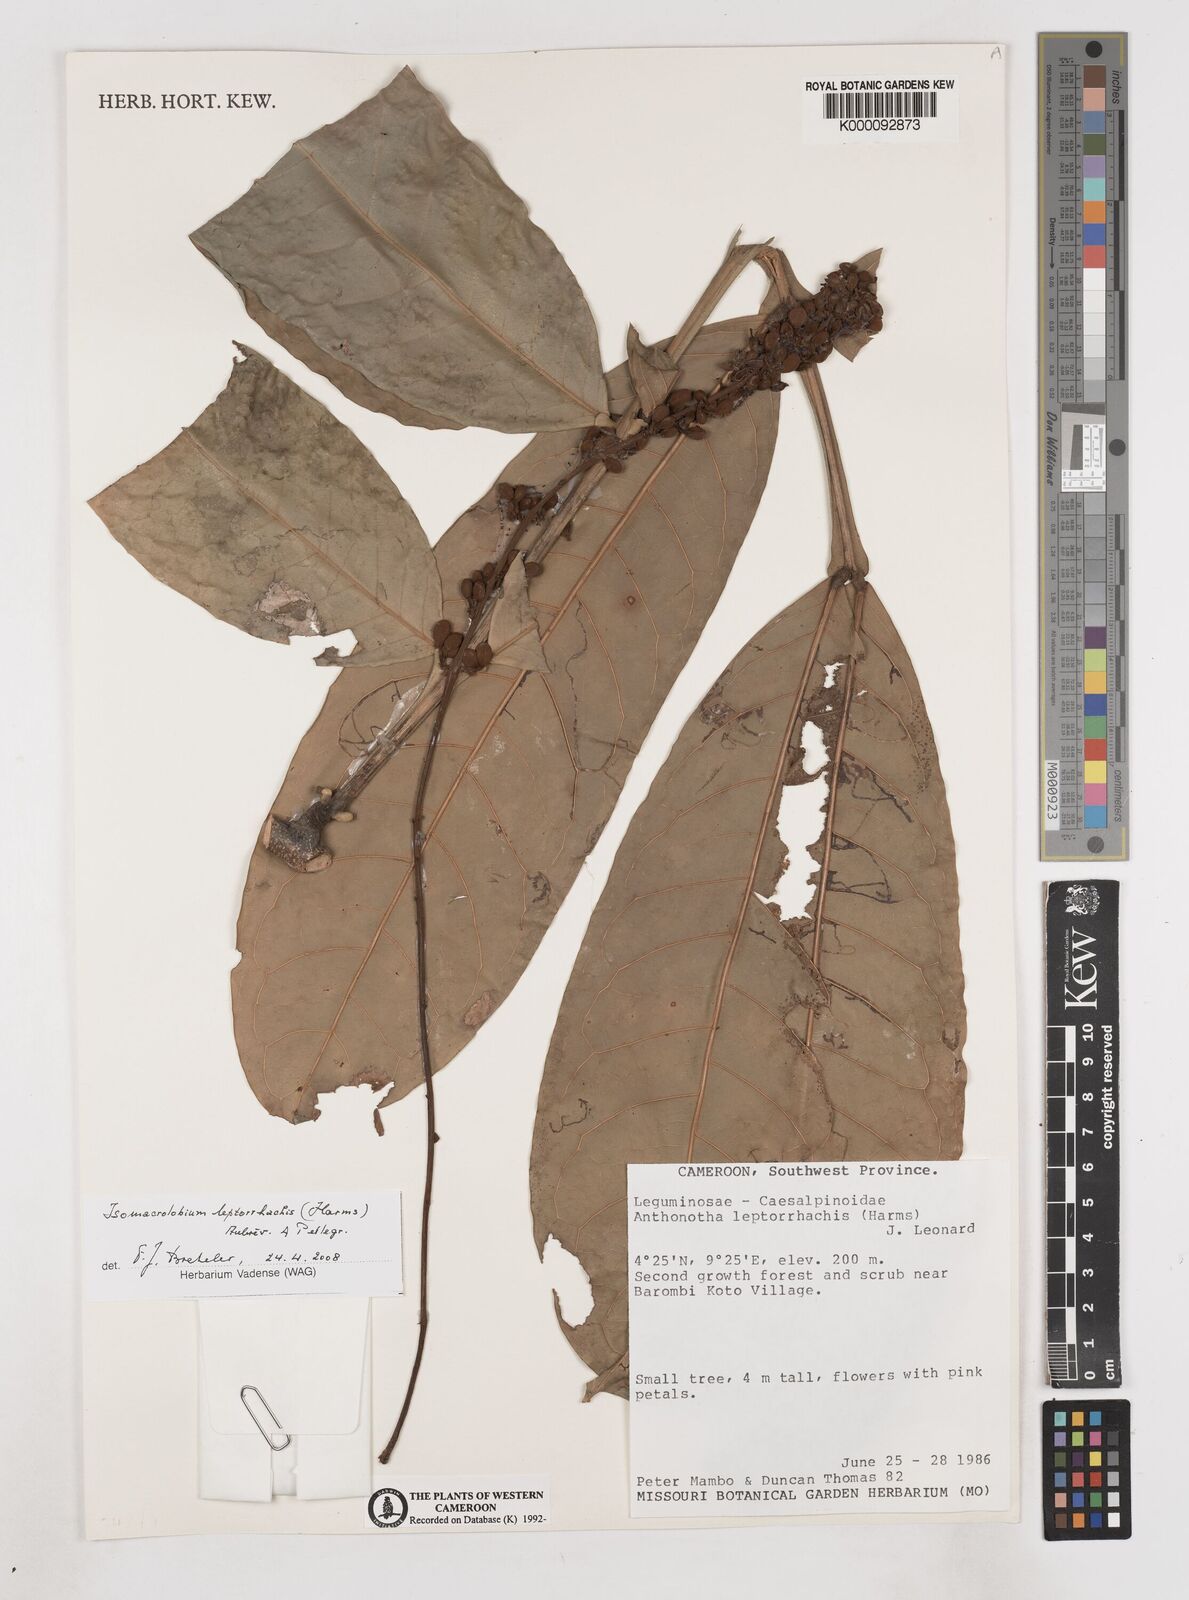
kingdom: Plantae
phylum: Tracheophyta
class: Magnoliopsida
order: Fabales
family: Fabaceae
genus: Englerodendron
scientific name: Englerodendron
